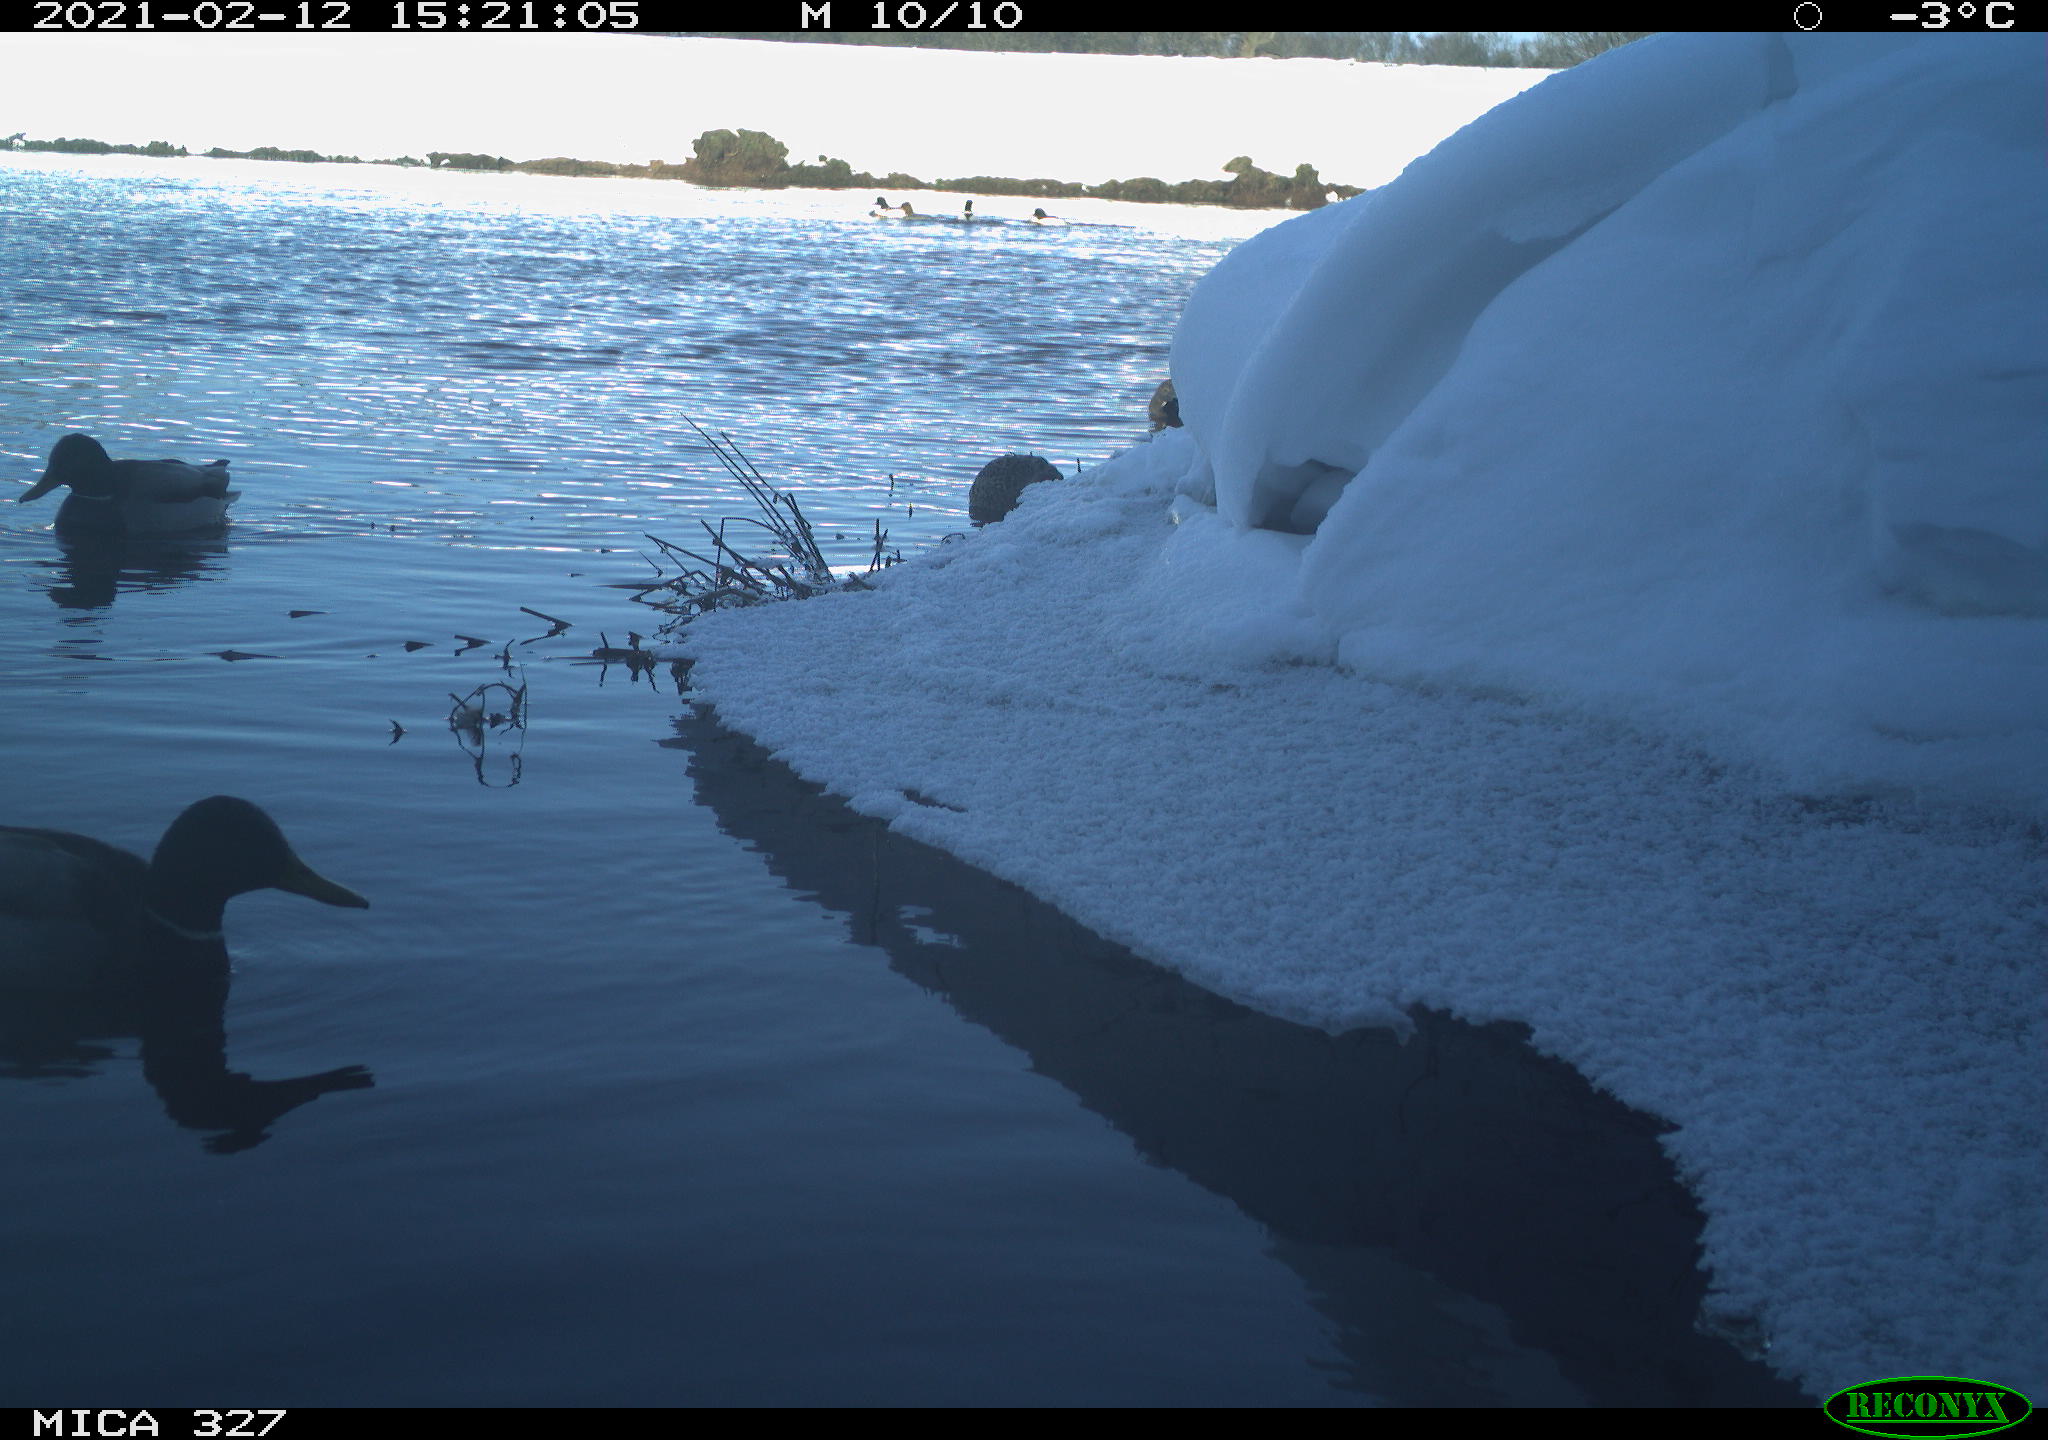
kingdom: Animalia
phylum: Chordata
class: Aves
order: Anseriformes
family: Anatidae
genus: Anas
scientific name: Anas platyrhynchos
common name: Mallard
